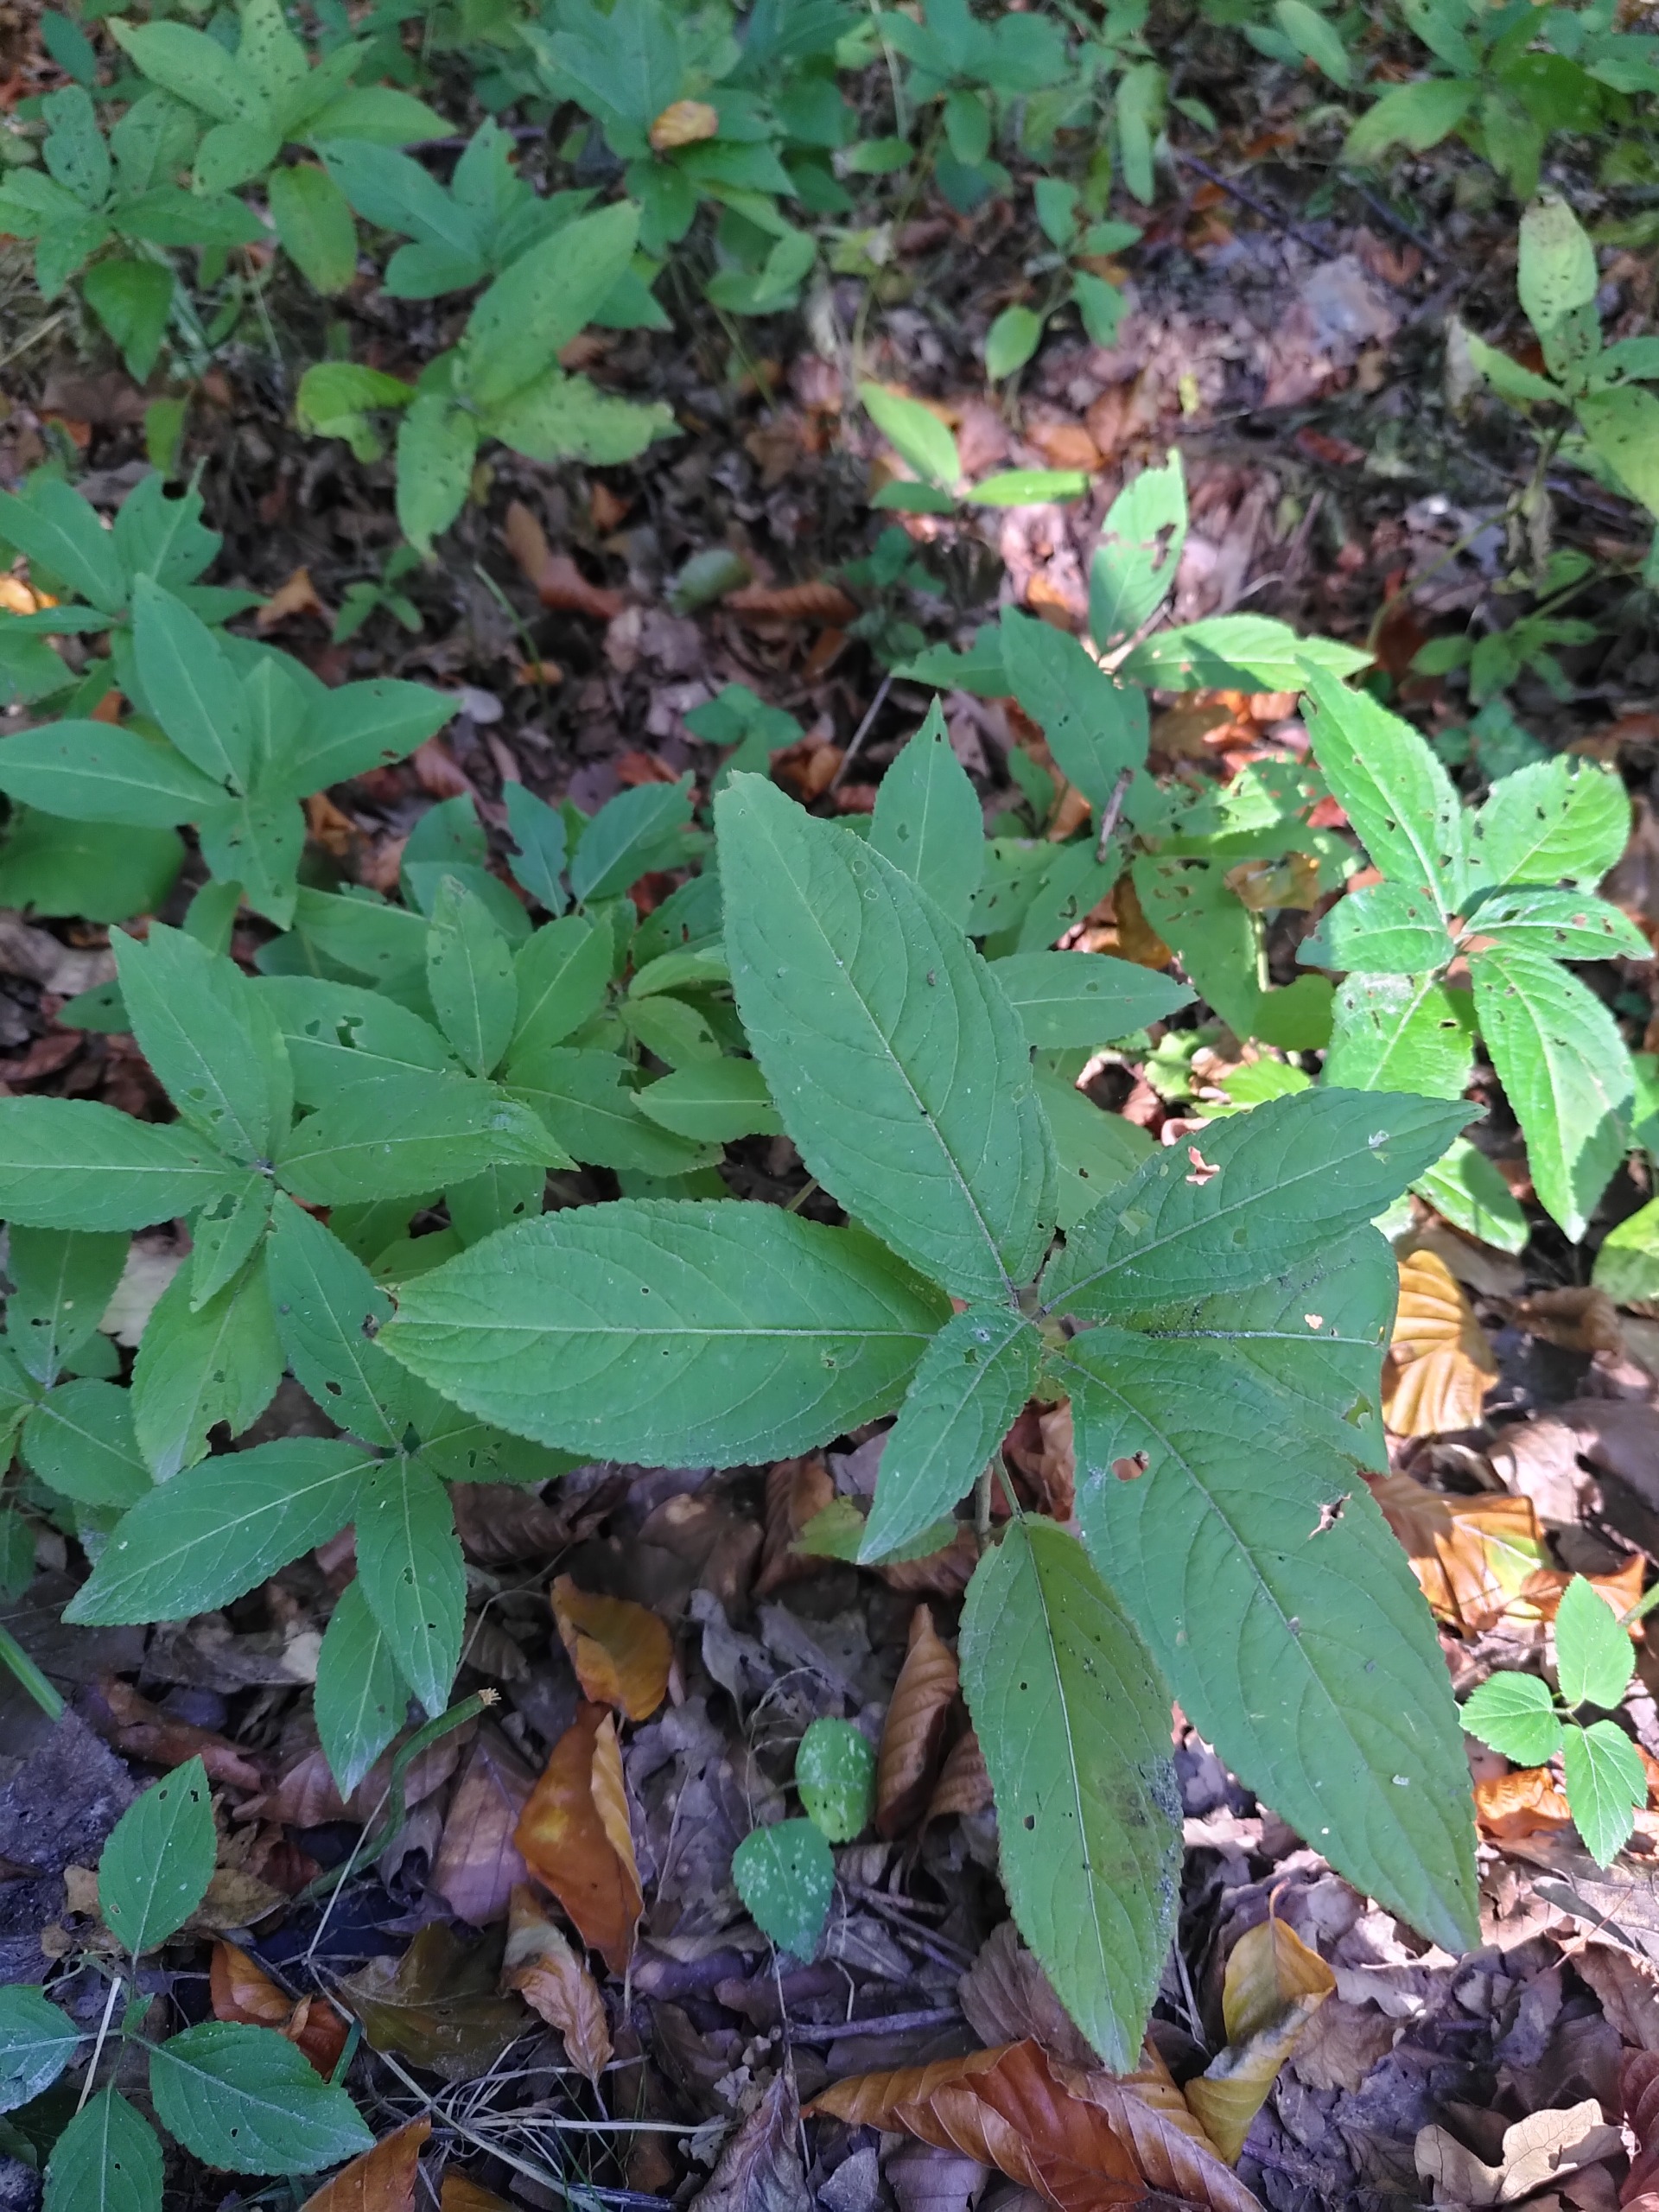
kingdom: Plantae
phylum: Tracheophyta
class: Magnoliopsida
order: Malpighiales
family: Euphorbiaceae
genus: Mercurialis
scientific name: Mercurialis perennis
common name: Almindelig bingelurt
